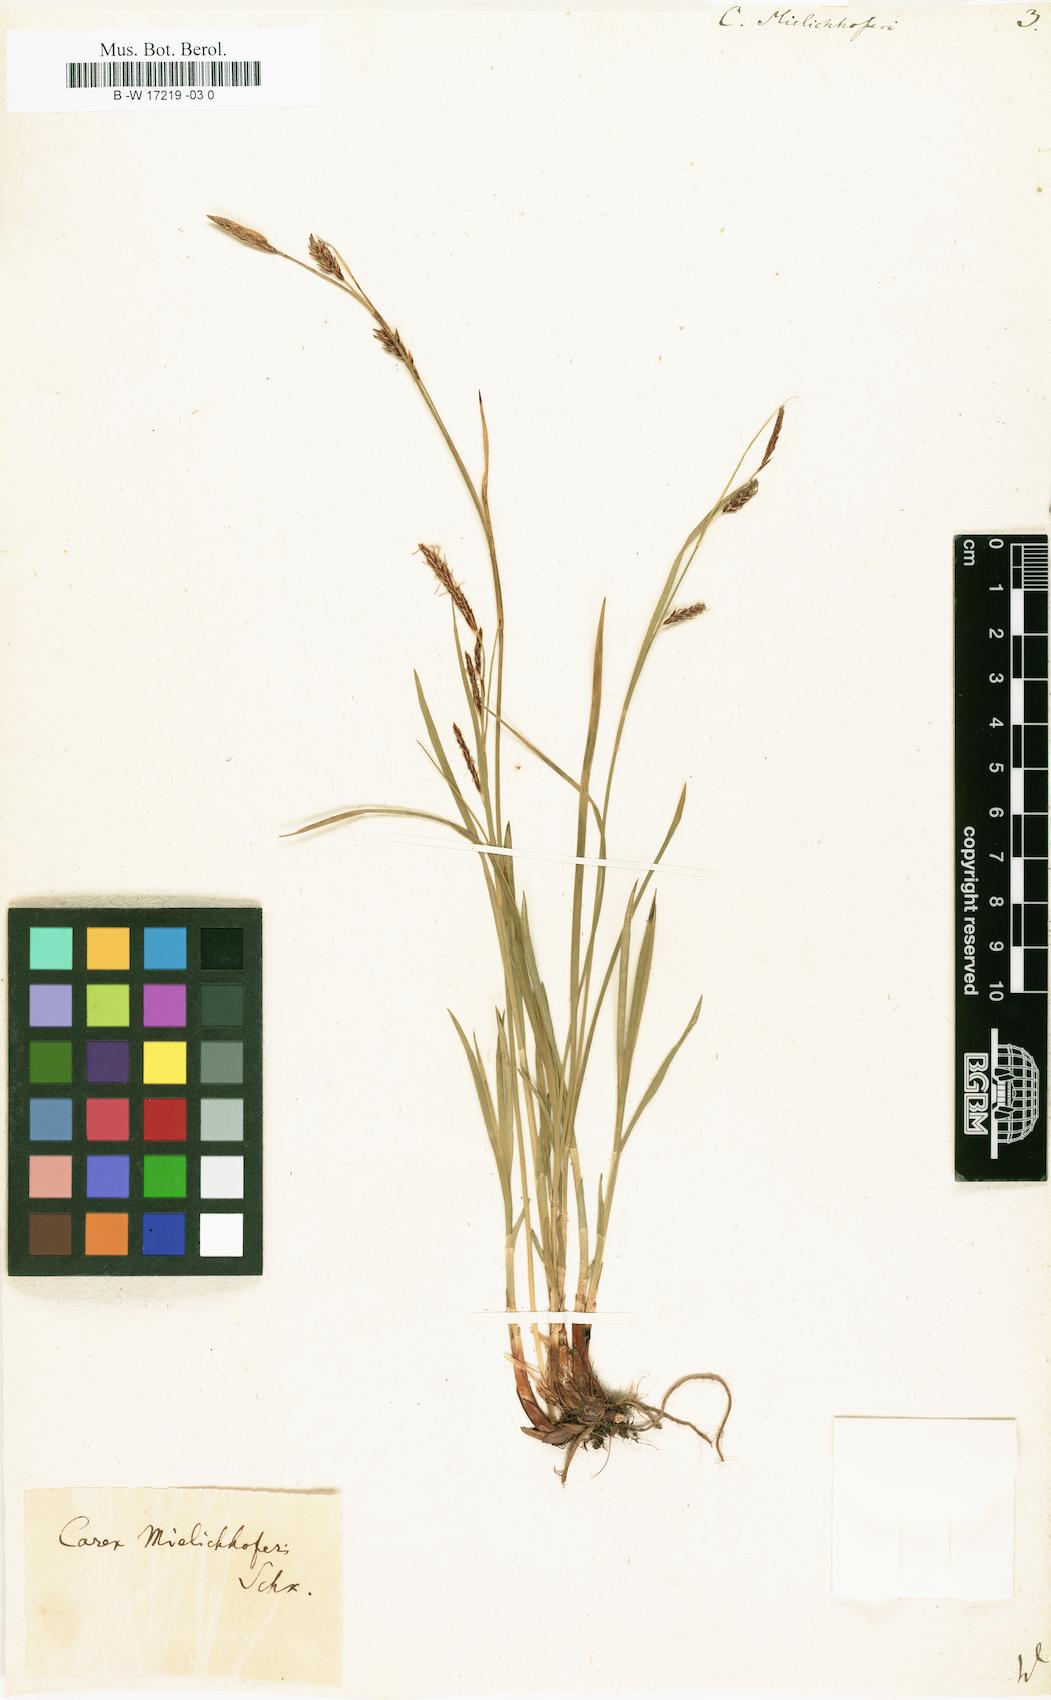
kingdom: Plantae
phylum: Tracheophyta
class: Liliopsida
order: Poales
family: Cyperaceae
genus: Carex
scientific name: Carex ferruginea
